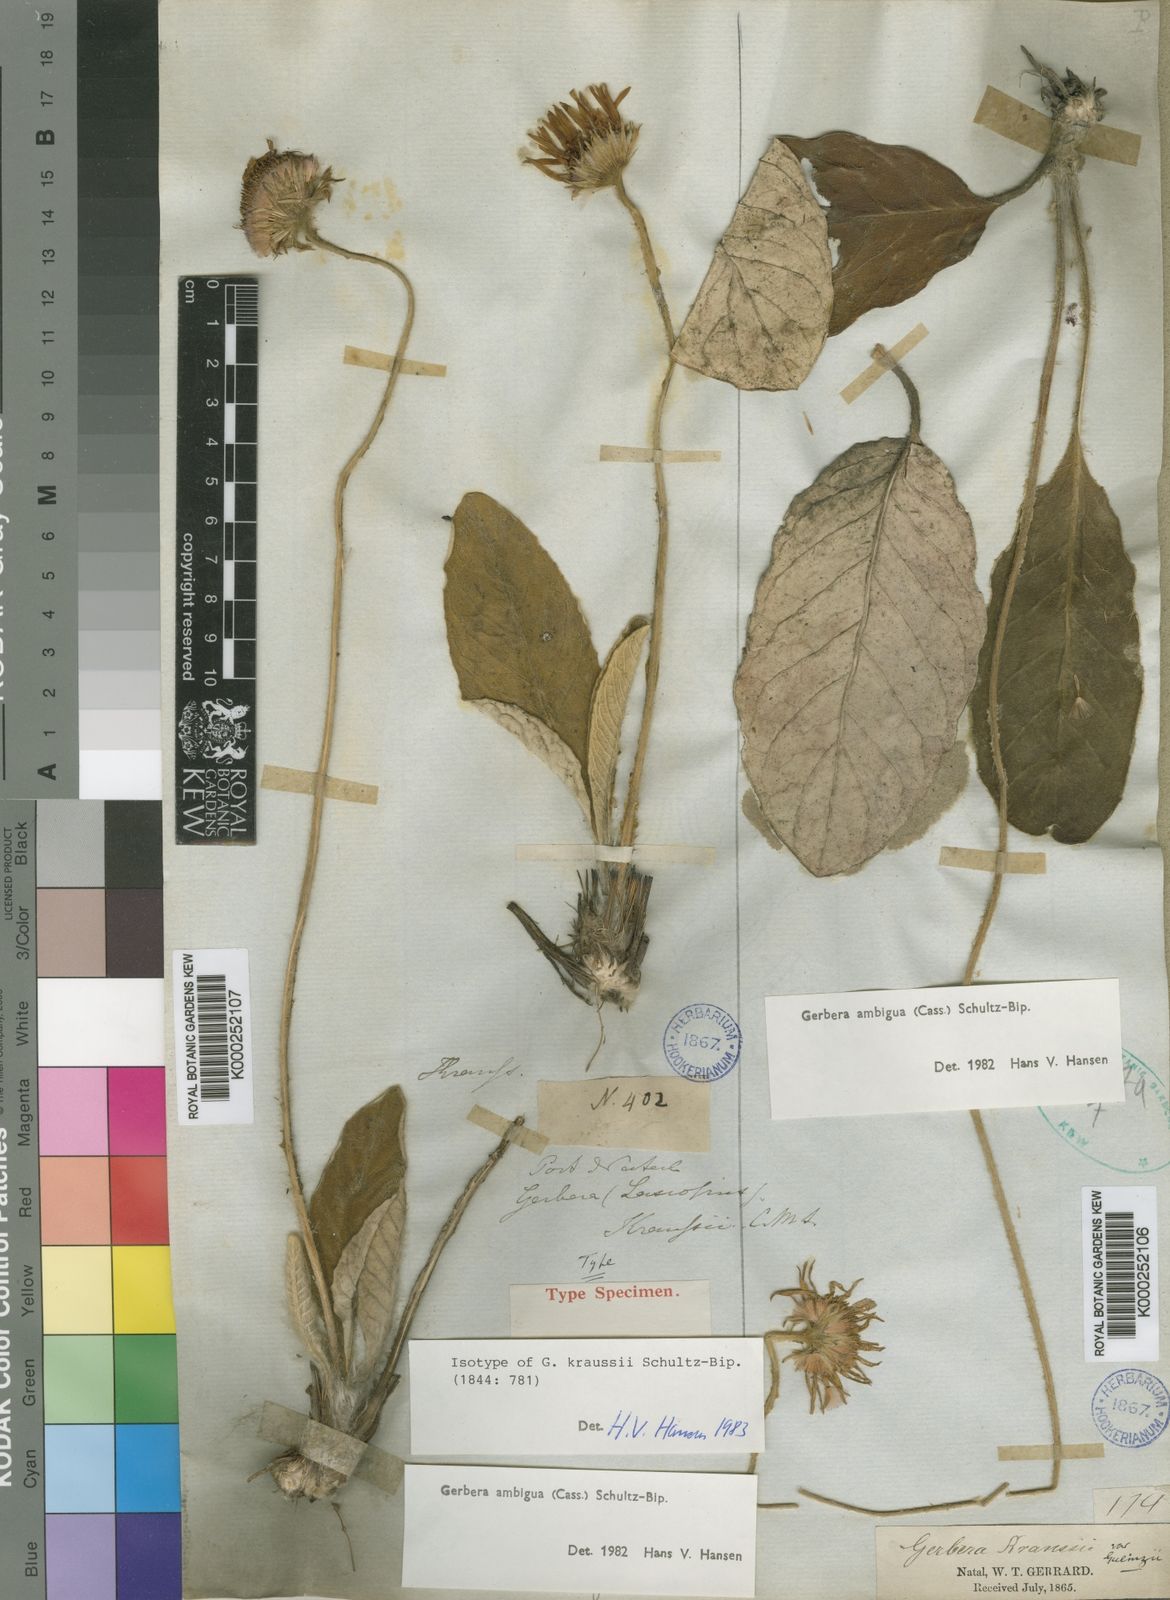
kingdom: Plantae
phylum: Tracheophyta
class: Magnoliopsida
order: Asterales
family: Asteraceae
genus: Gerbera
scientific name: Gerbera ambigua
